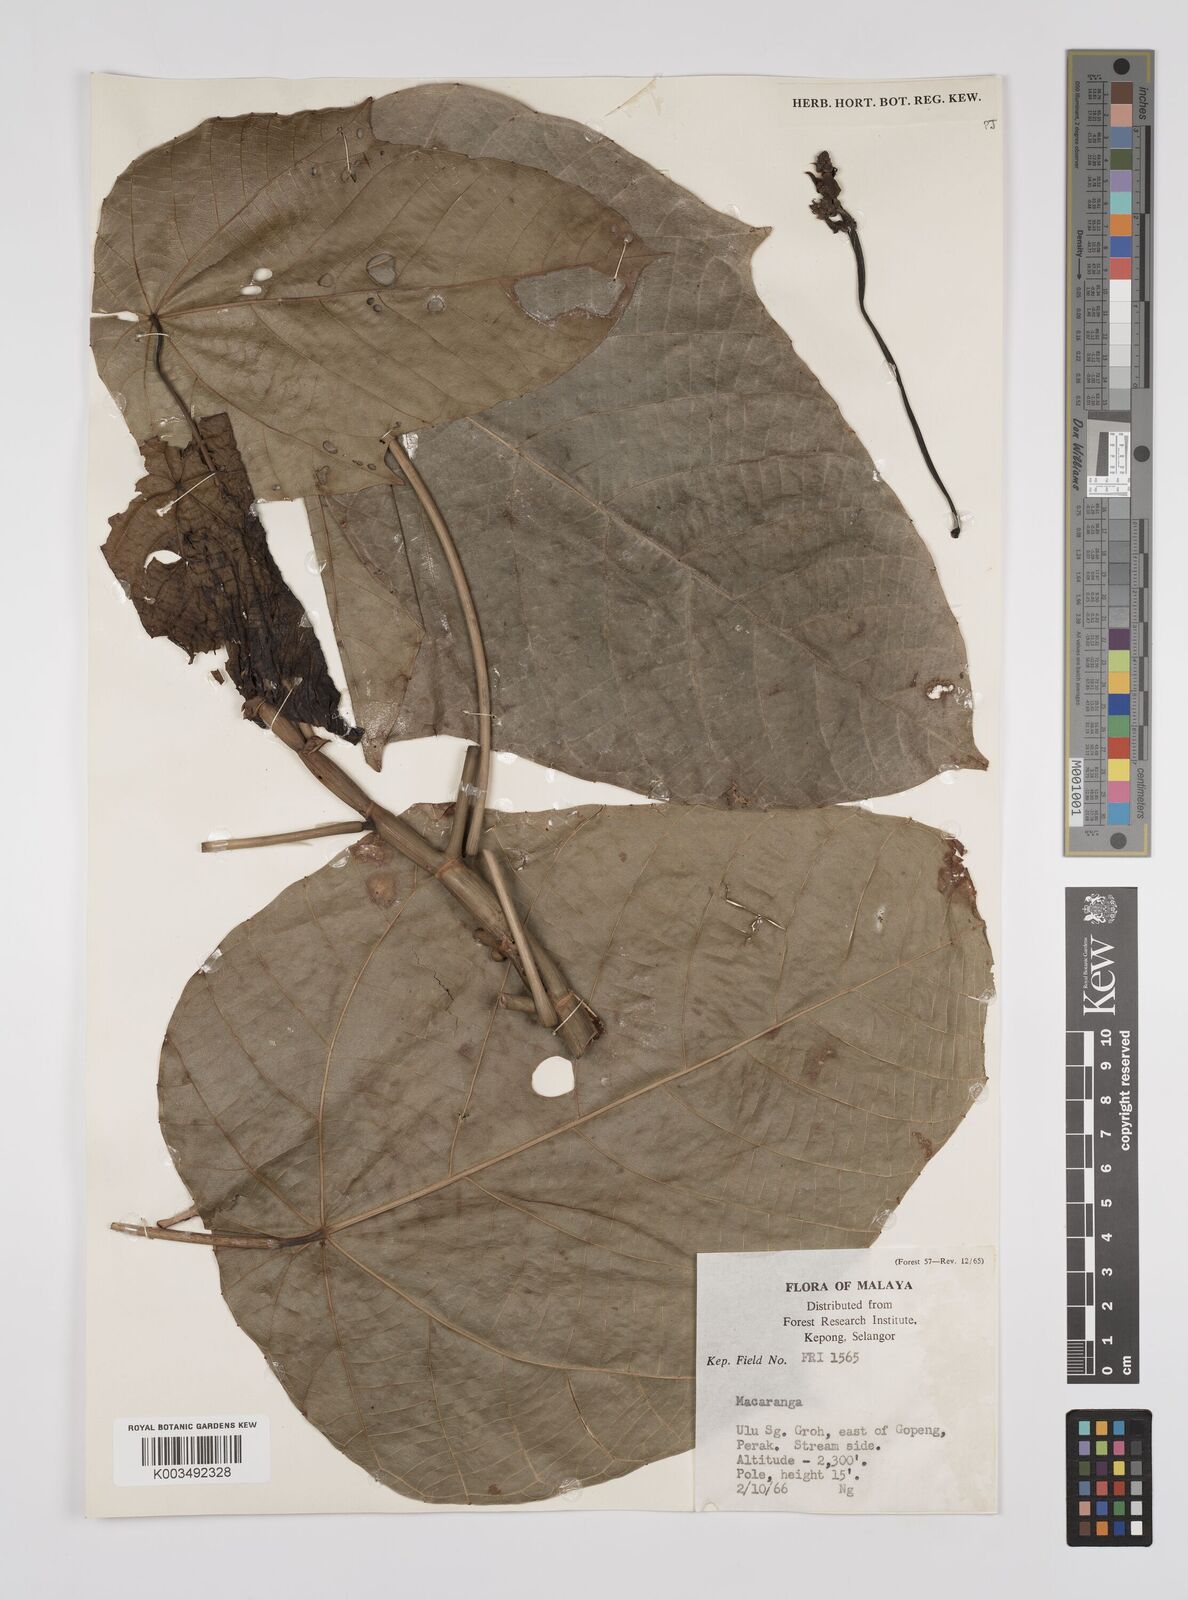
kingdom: Plantae
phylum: Tracheophyta
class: Magnoliopsida
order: Malpighiales
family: Euphorbiaceae
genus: Macaranga
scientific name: Macaranga hullettii
